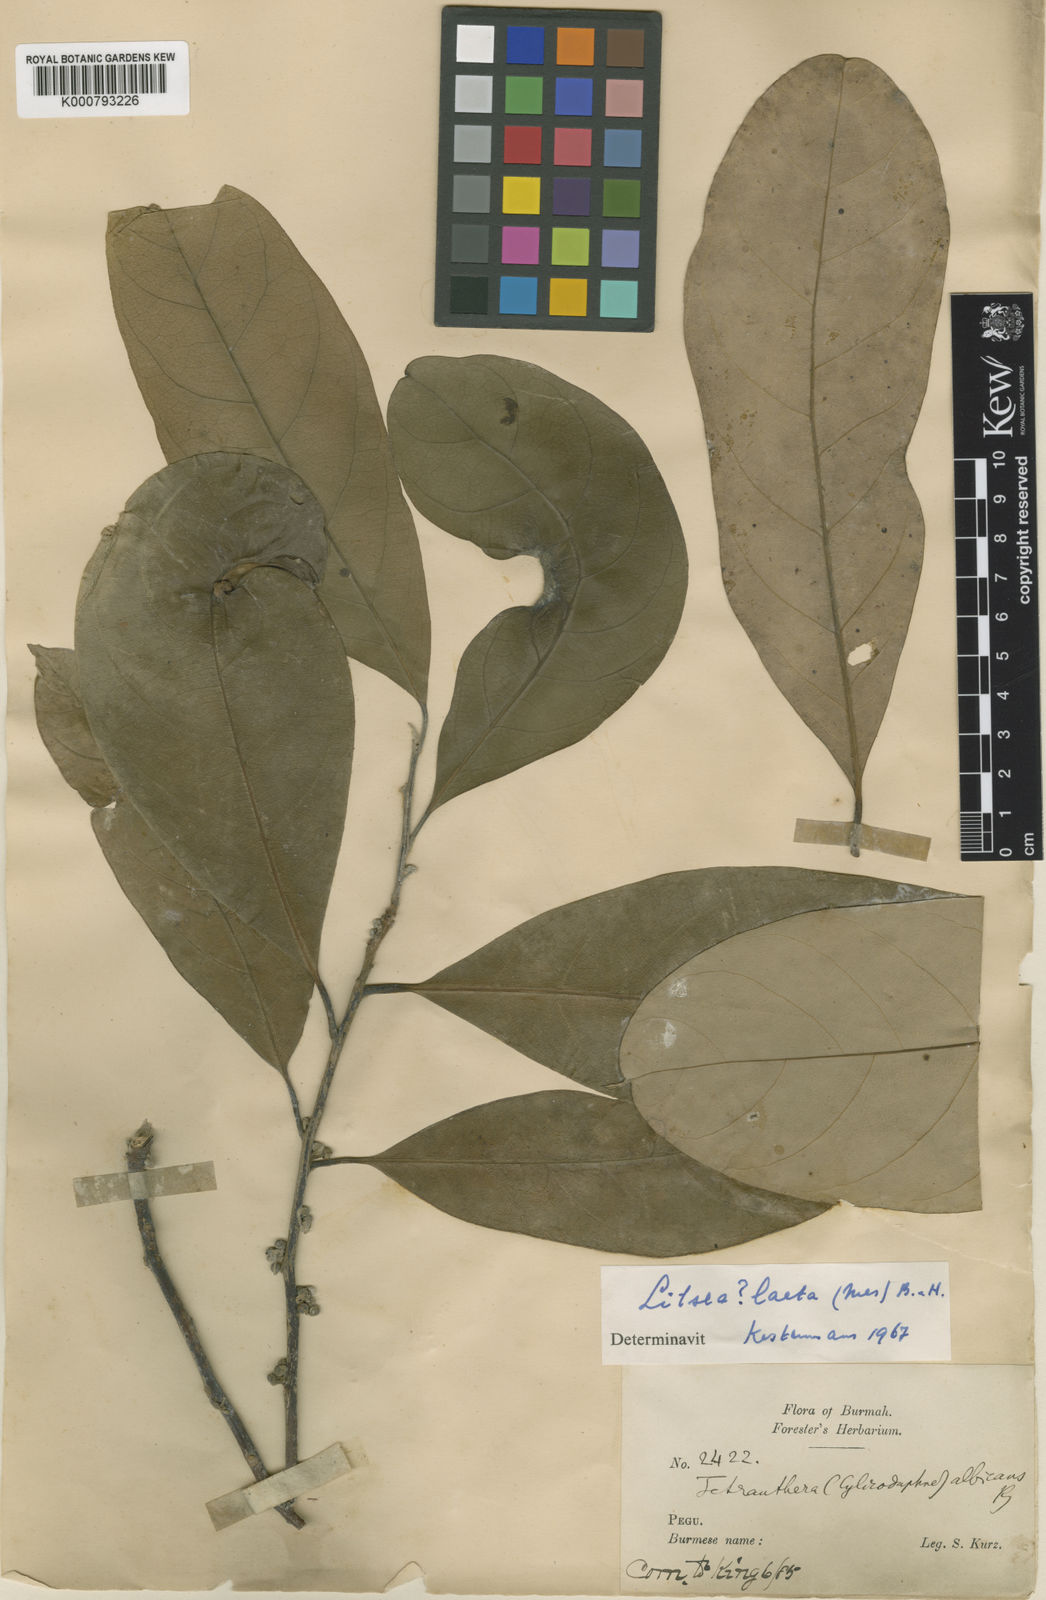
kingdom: Plantae
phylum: Tracheophyta
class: Magnoliopsida
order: Laurales
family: Lauraceae
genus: Litsea
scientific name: Litsea albicans
